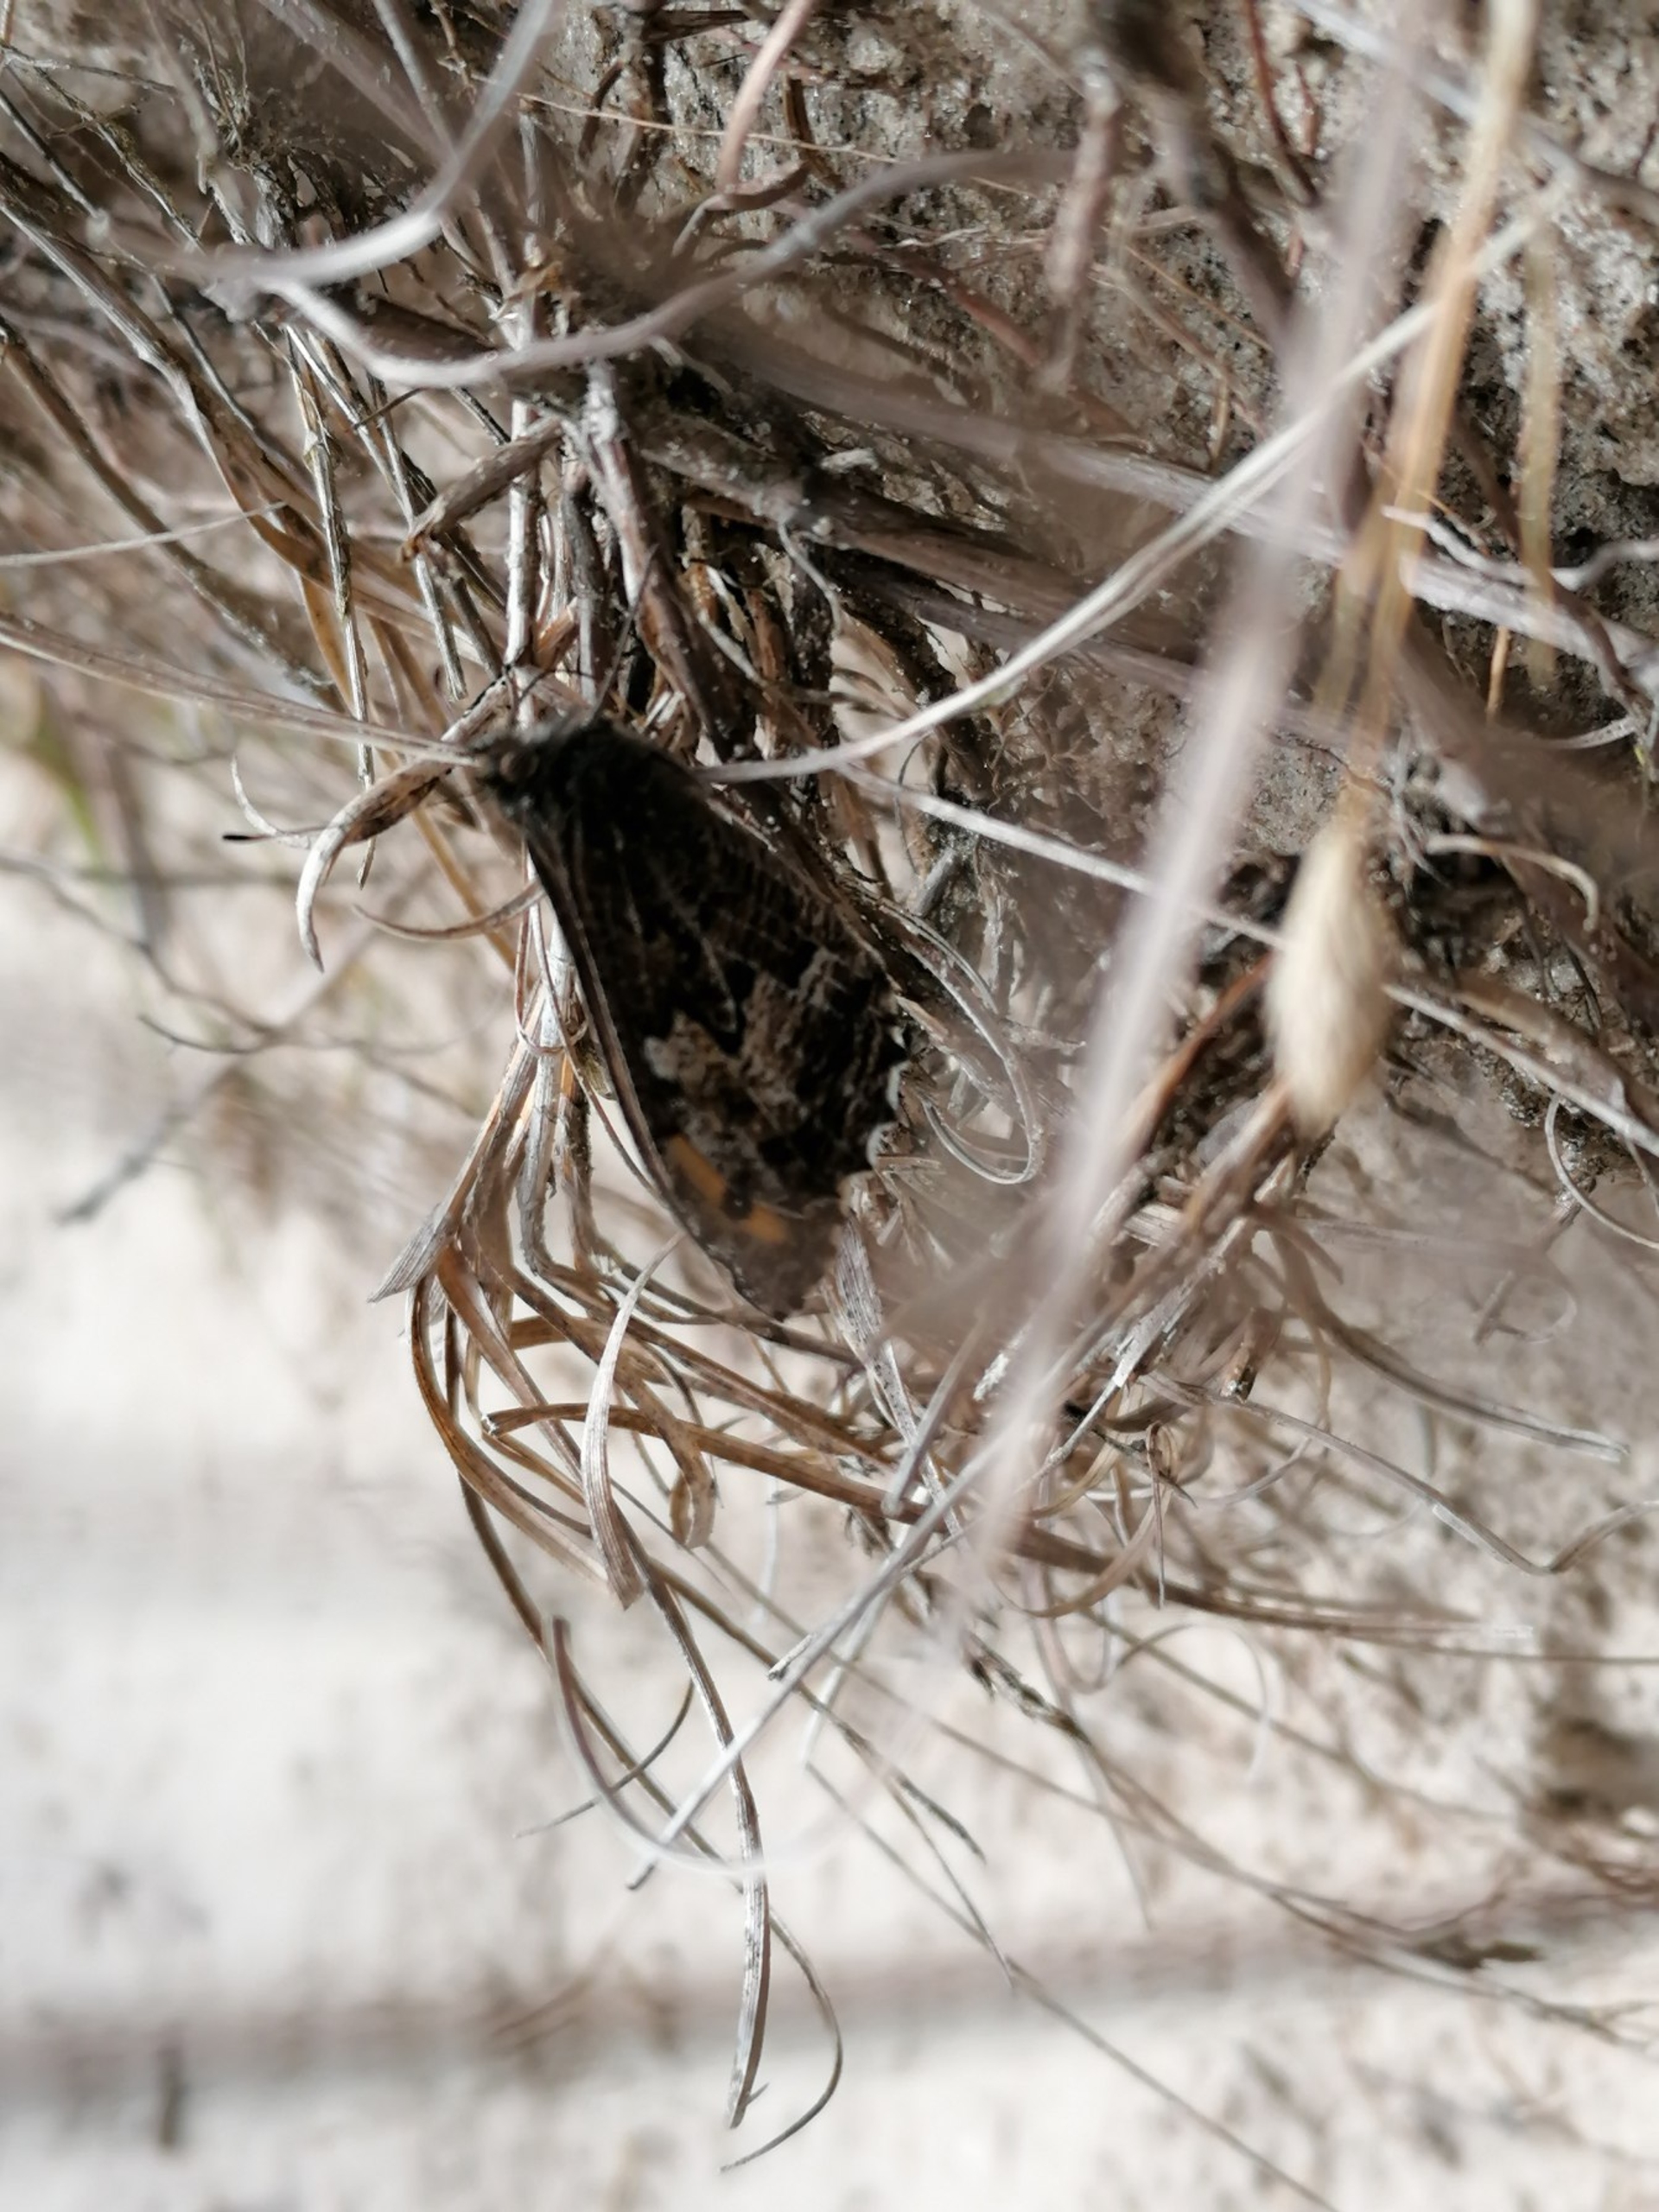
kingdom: Animalia
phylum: Arthropoda
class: Insecta
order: Lepidoptera
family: Nymphalidae
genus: Hipparchia
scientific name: Hipparchia semele
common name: Sandrandøje
